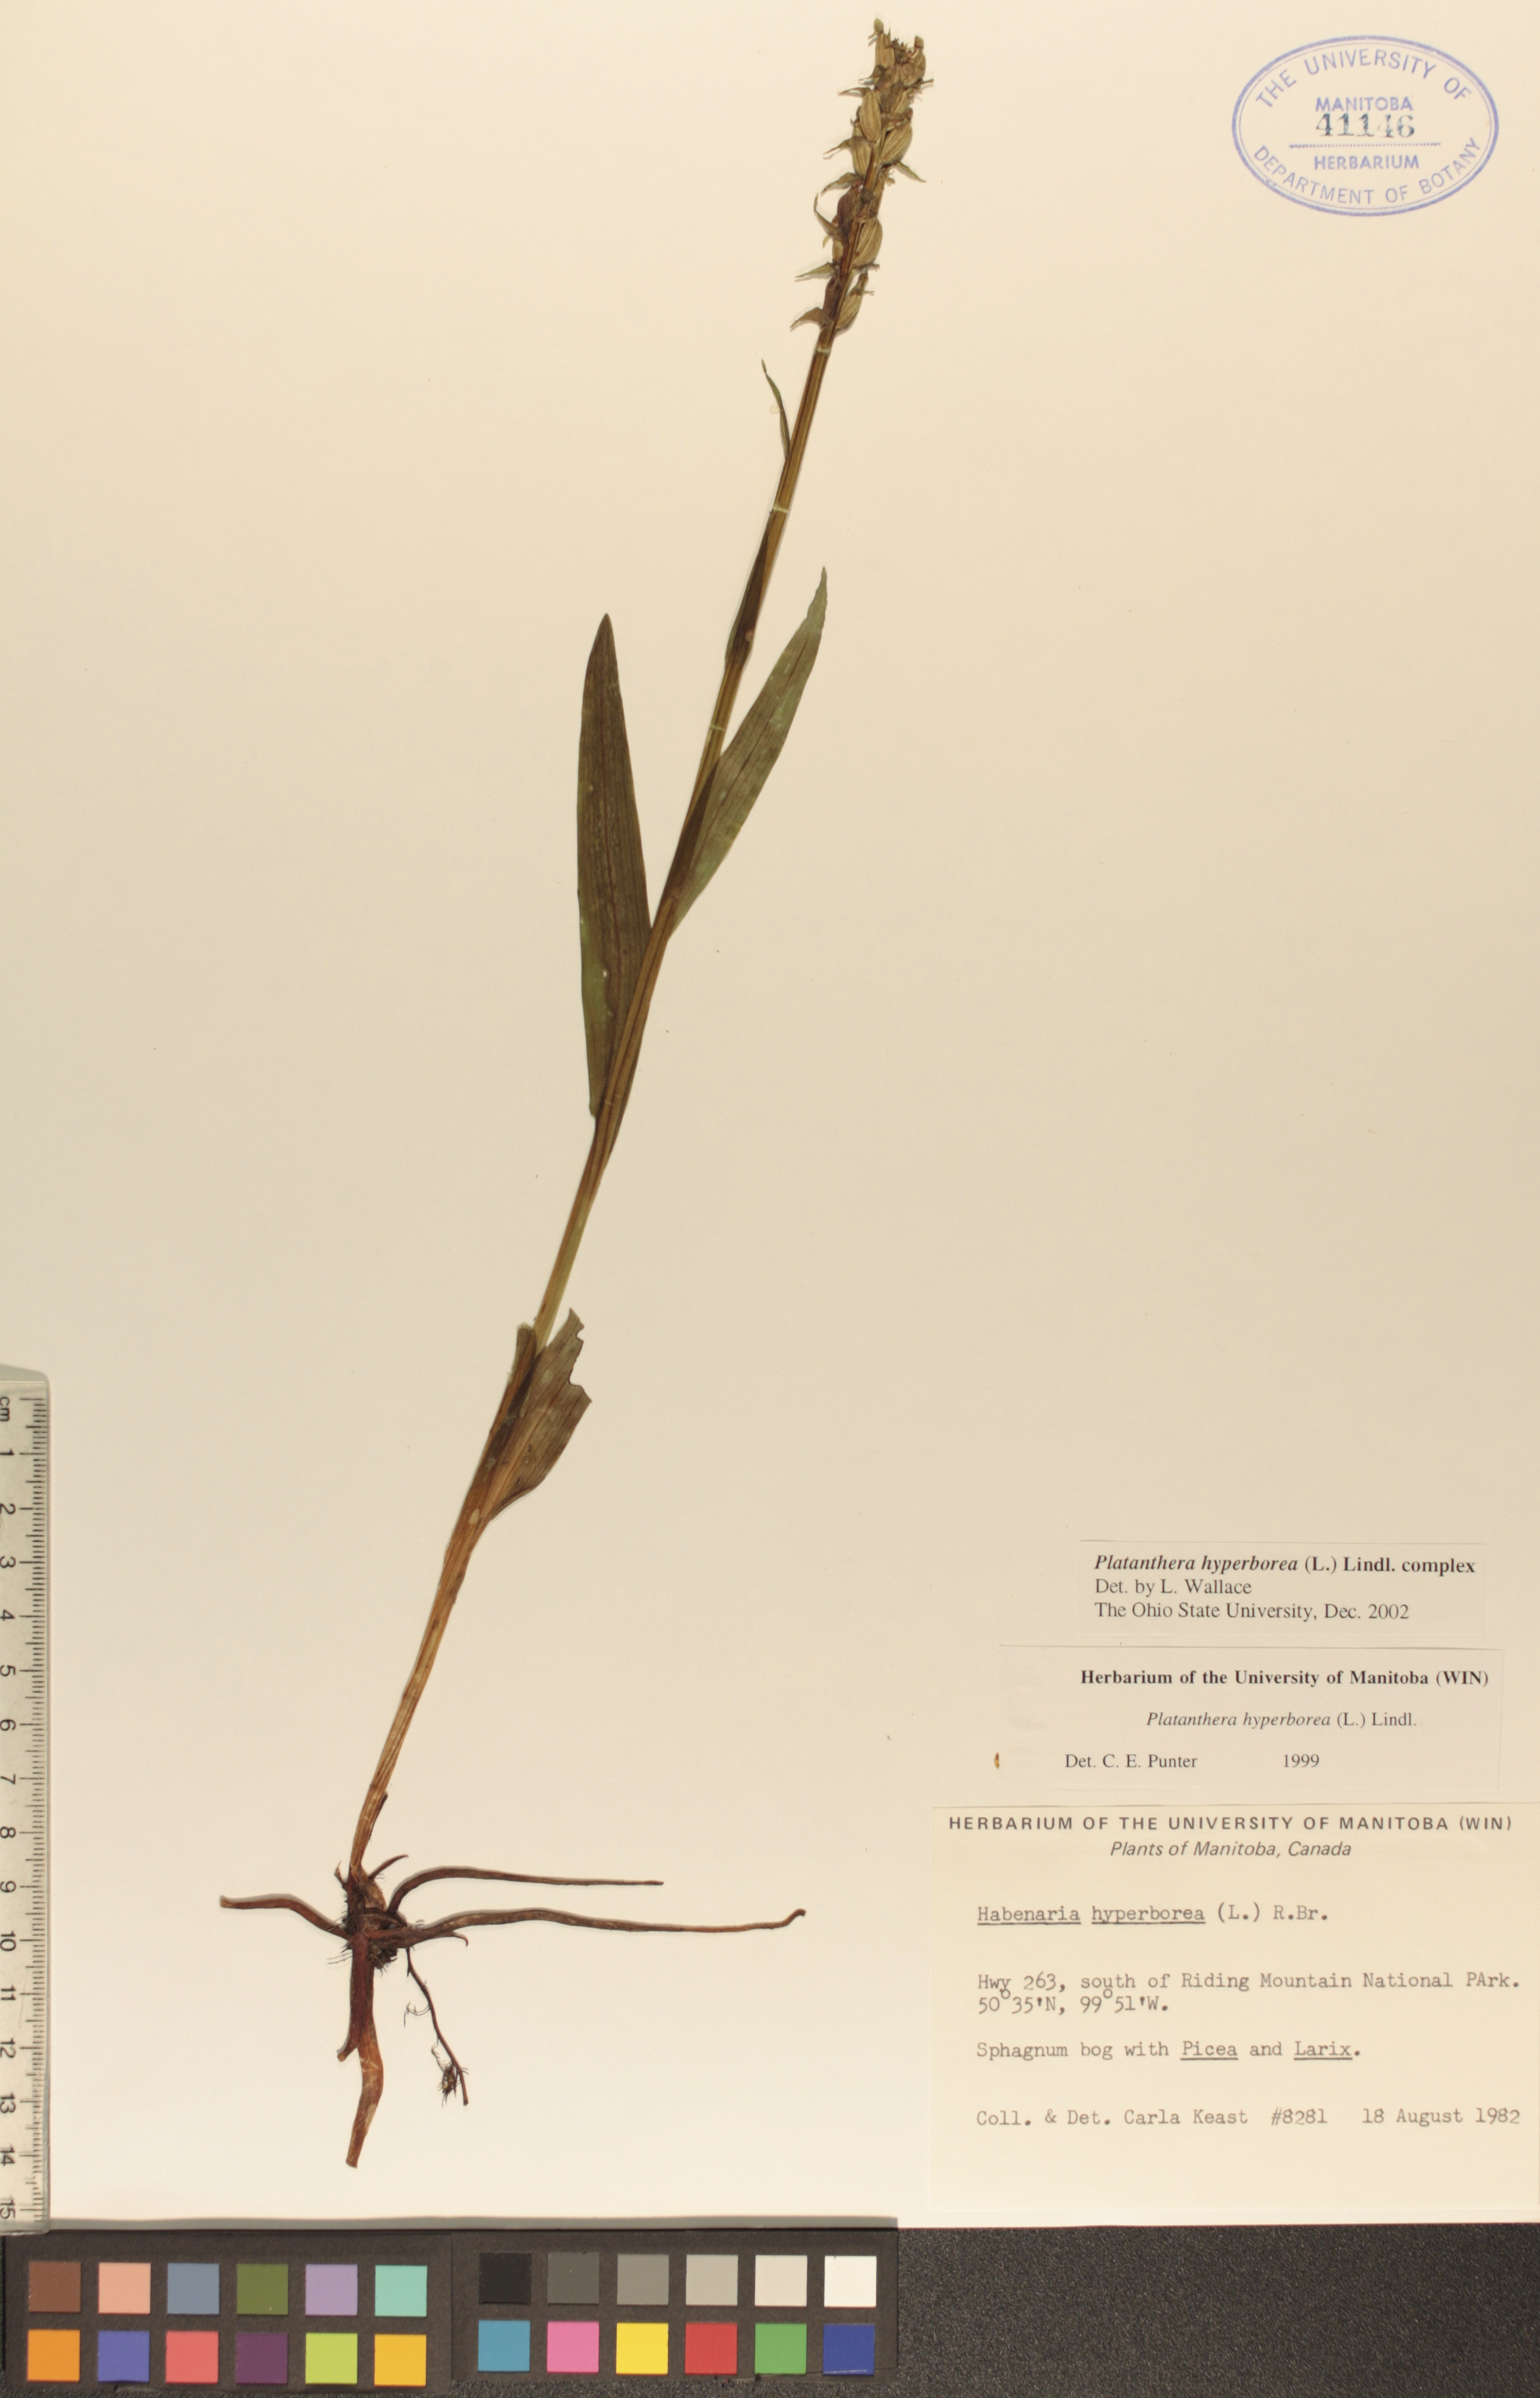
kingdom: Plantae
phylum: Tracheophyta
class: Liliopsida
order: Asparagales
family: Orchidaceae
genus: Platanthera
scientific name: Platanthera hyperborea
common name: Northern green orchid
